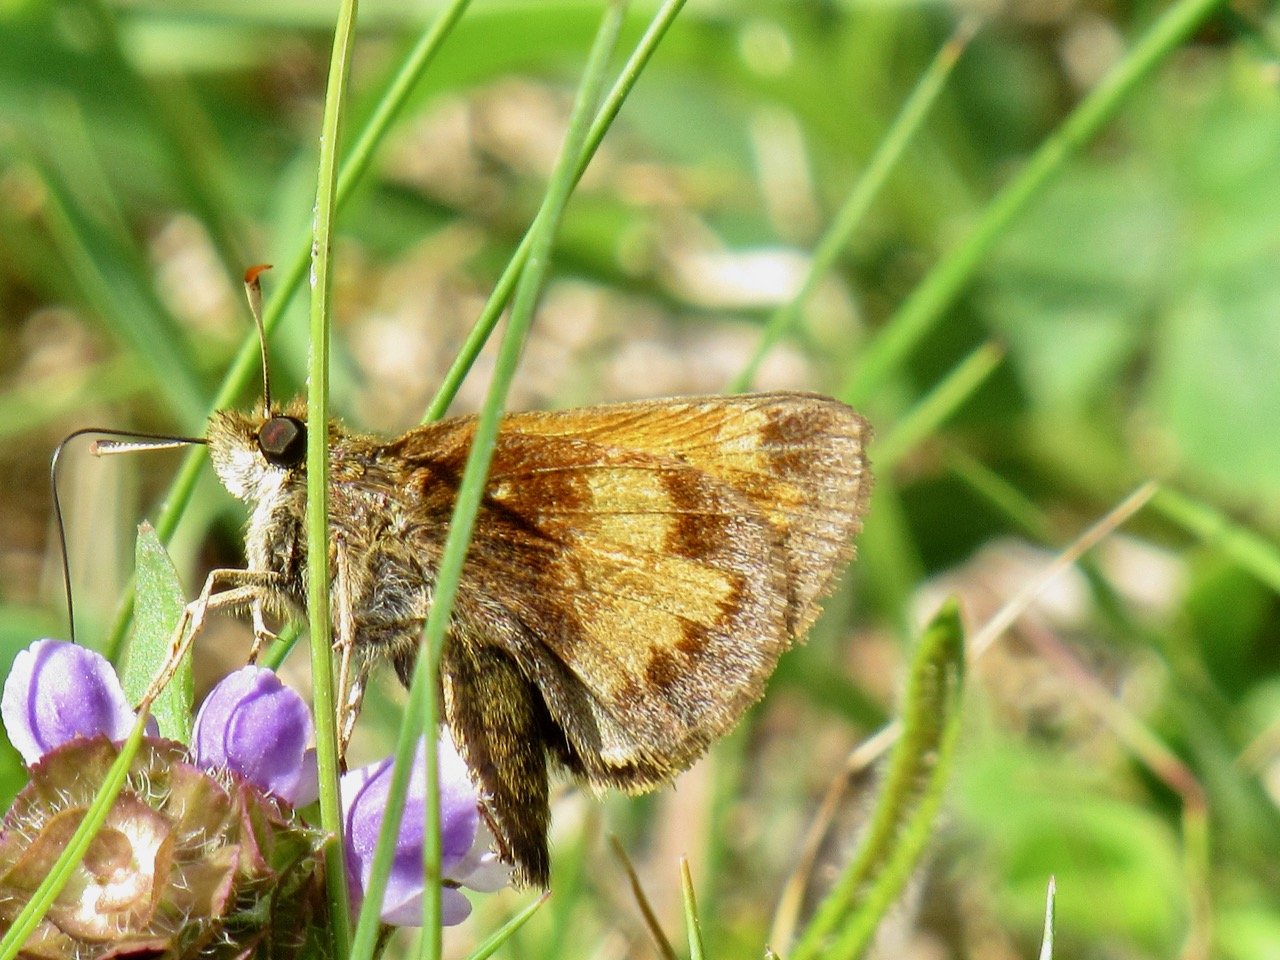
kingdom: Animalia
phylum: Arthropoda
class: Insecta
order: Lepidoptera
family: Hesperiidae
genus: Lon
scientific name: Lon hobomok
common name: Hobomok Skipper
